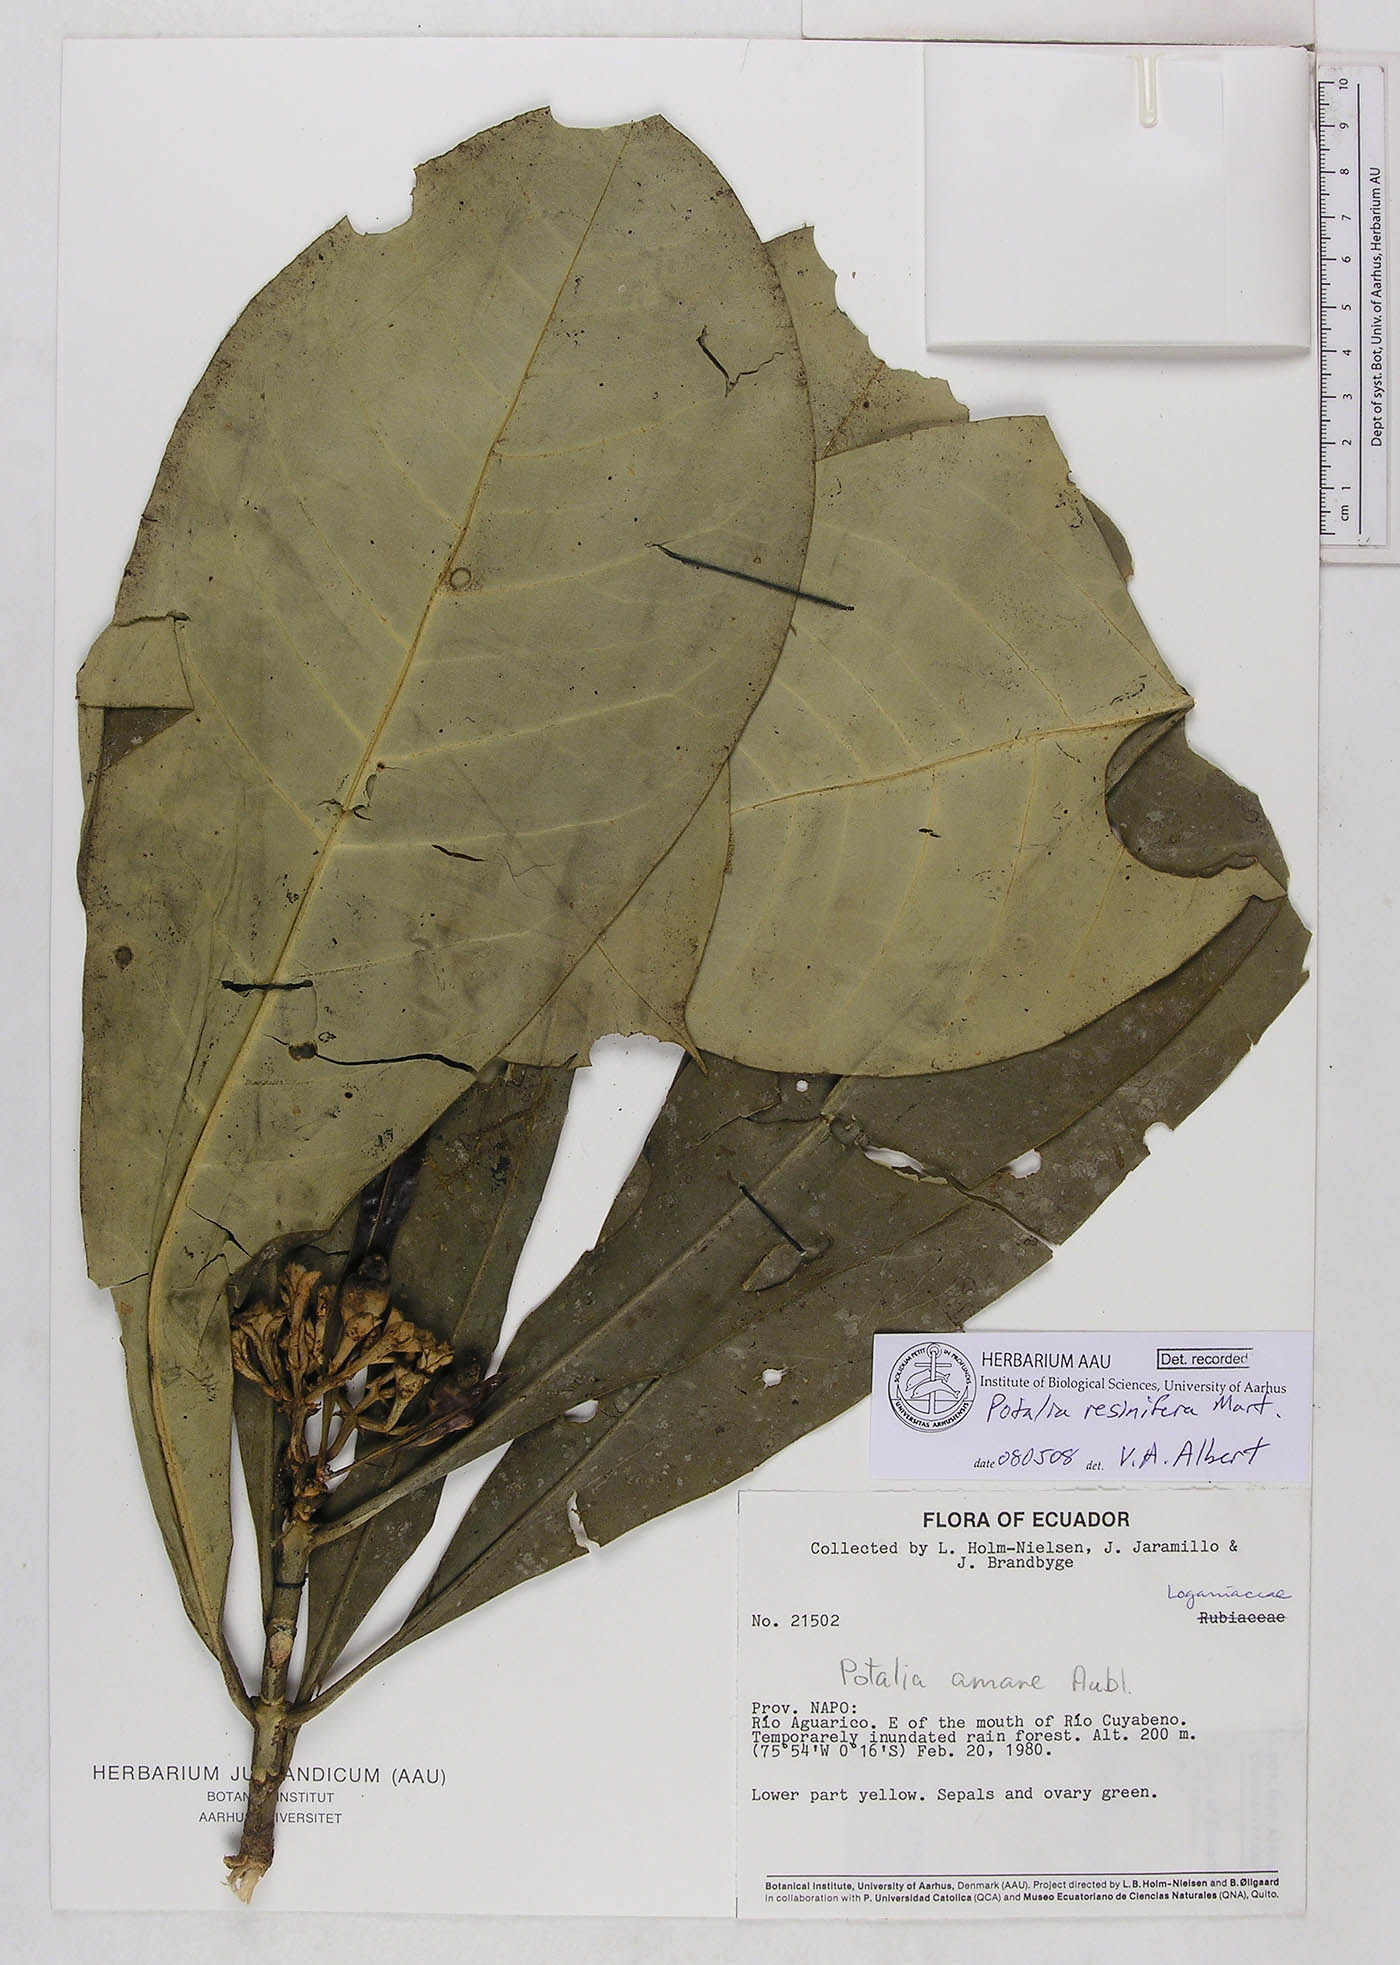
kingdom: Plantae
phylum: Tracheophyta
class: Magnoliopsida
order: Gentianales
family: Gentianaceae
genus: Potalia
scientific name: Potalia resinifera
